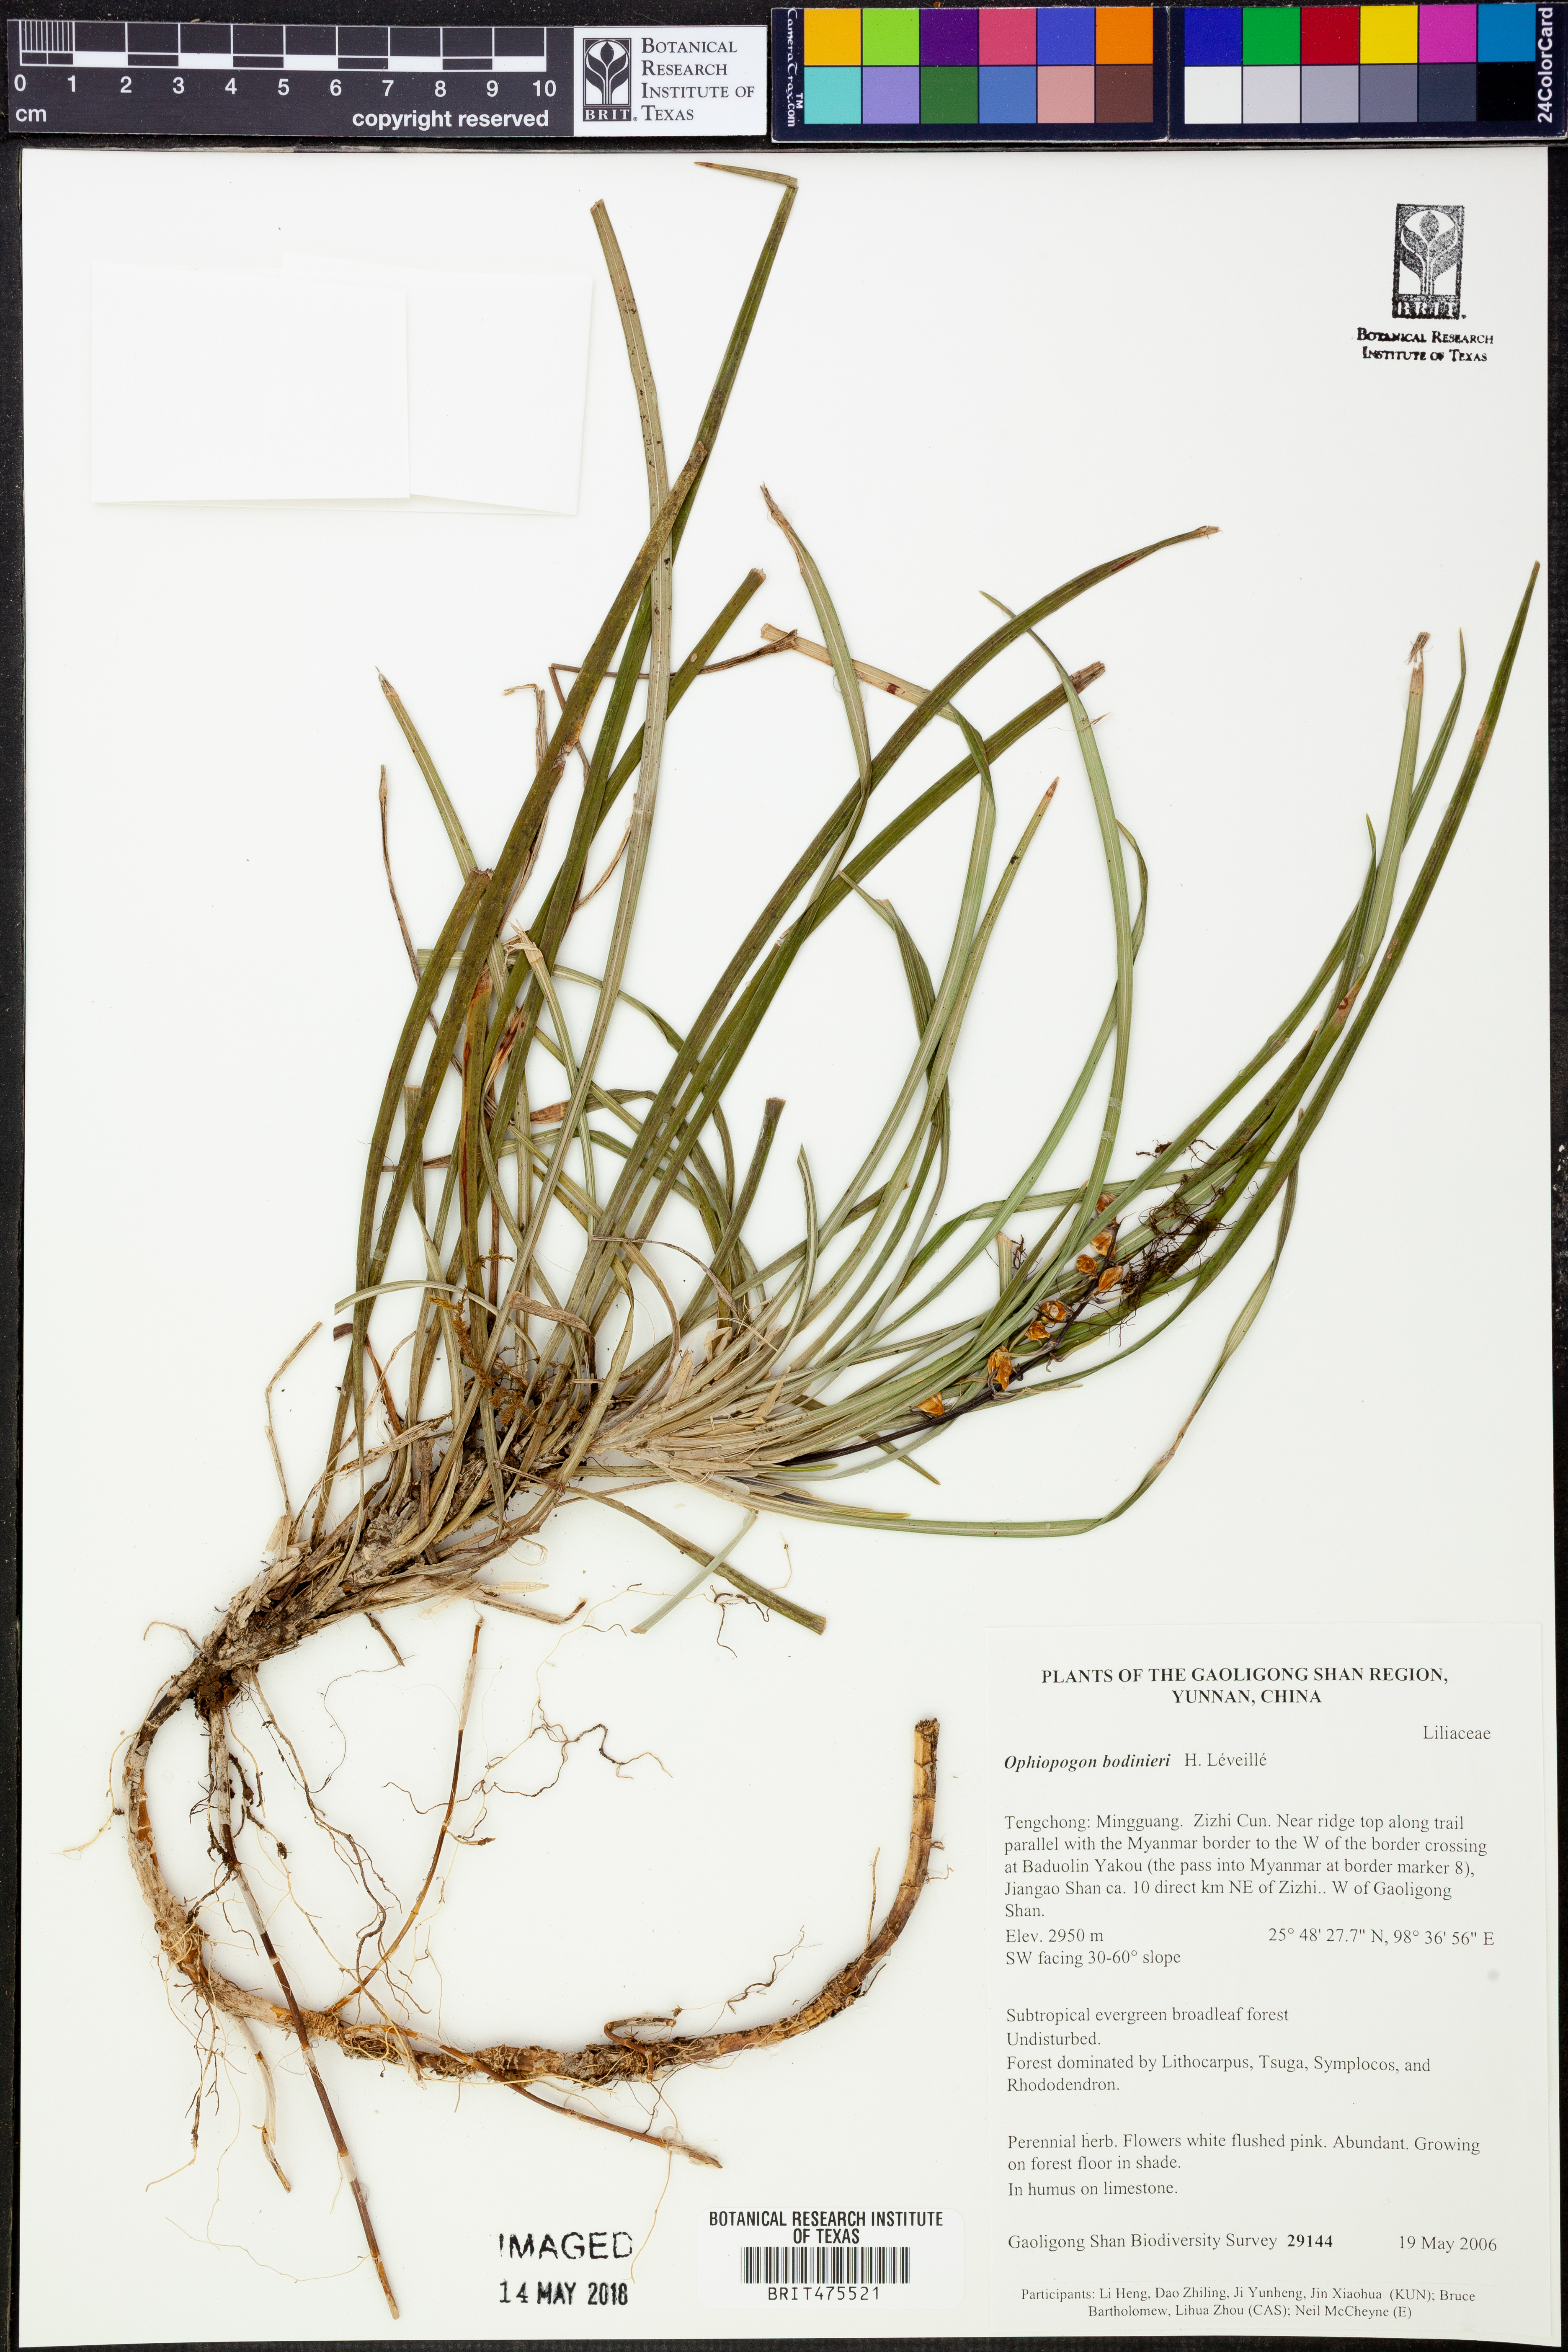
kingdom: Plantae
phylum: Tracheophyta
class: Liliopsida
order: Asparagales
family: Asparagaceae
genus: Ophiopogon
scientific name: Ophiopogon bodinieri
